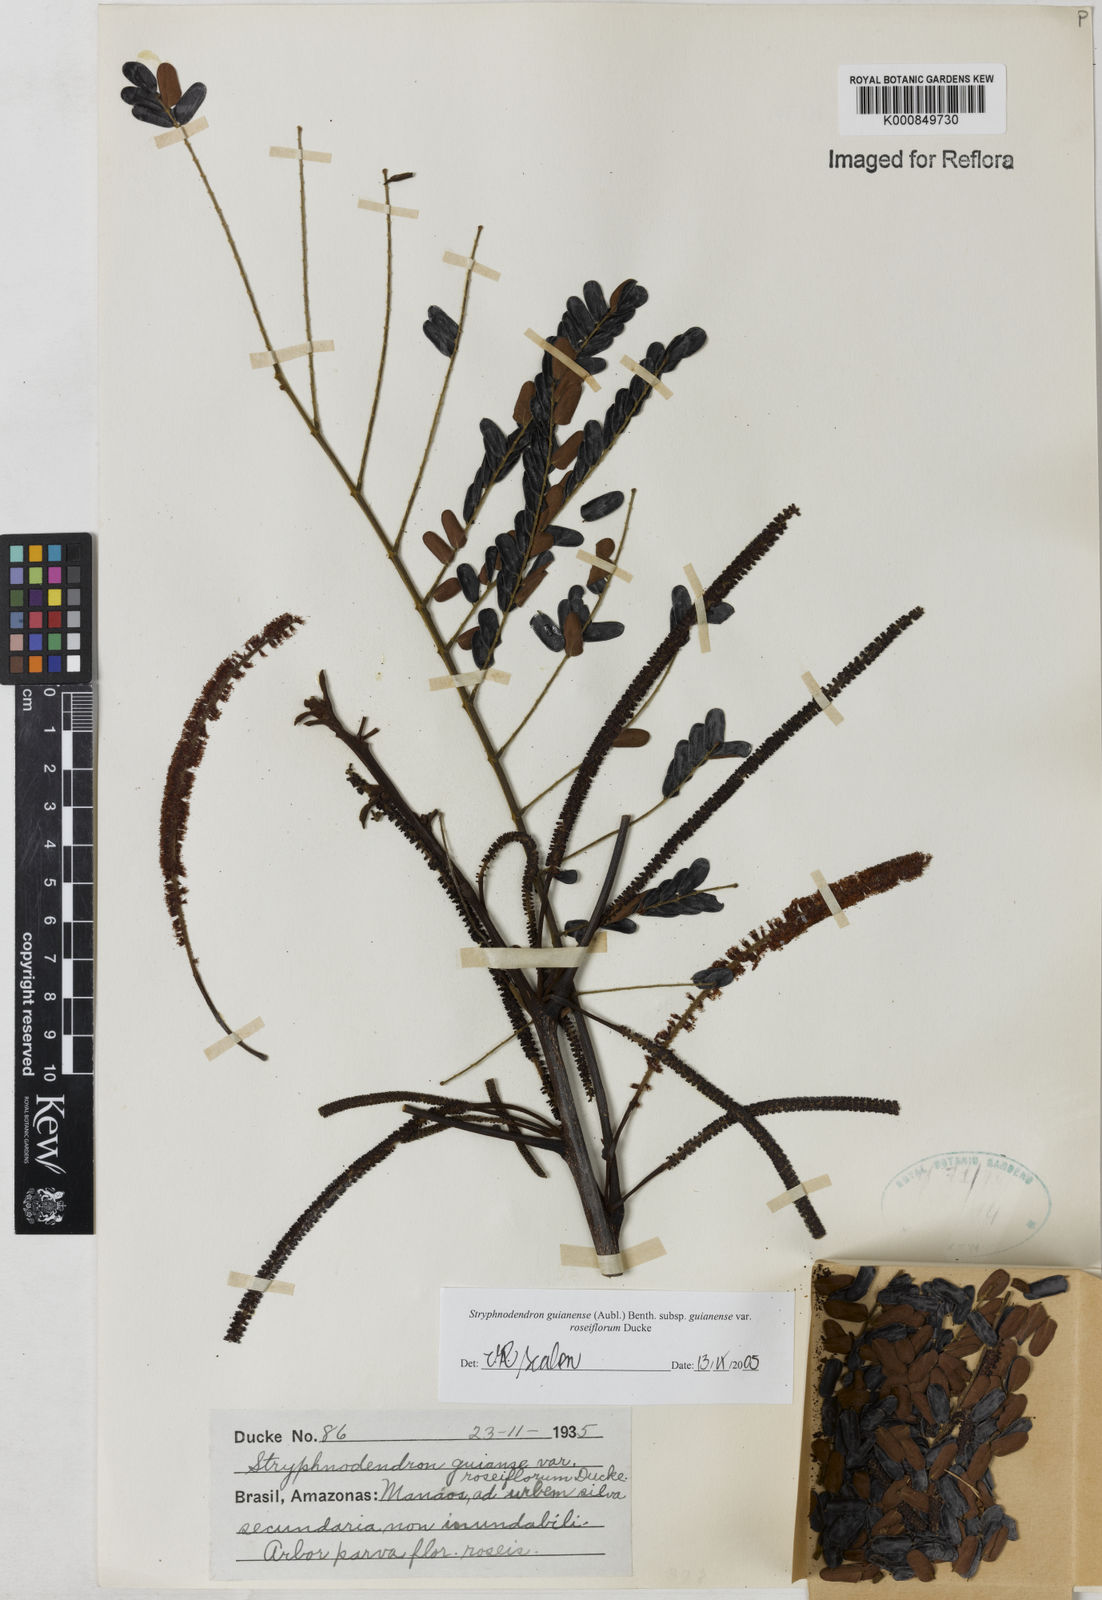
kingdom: Plantae
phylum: Tracheophyta
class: Magnoliopsida
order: Fabales
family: Fabaceae
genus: Stryphnodendron
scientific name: Stryphnodendron guianense
